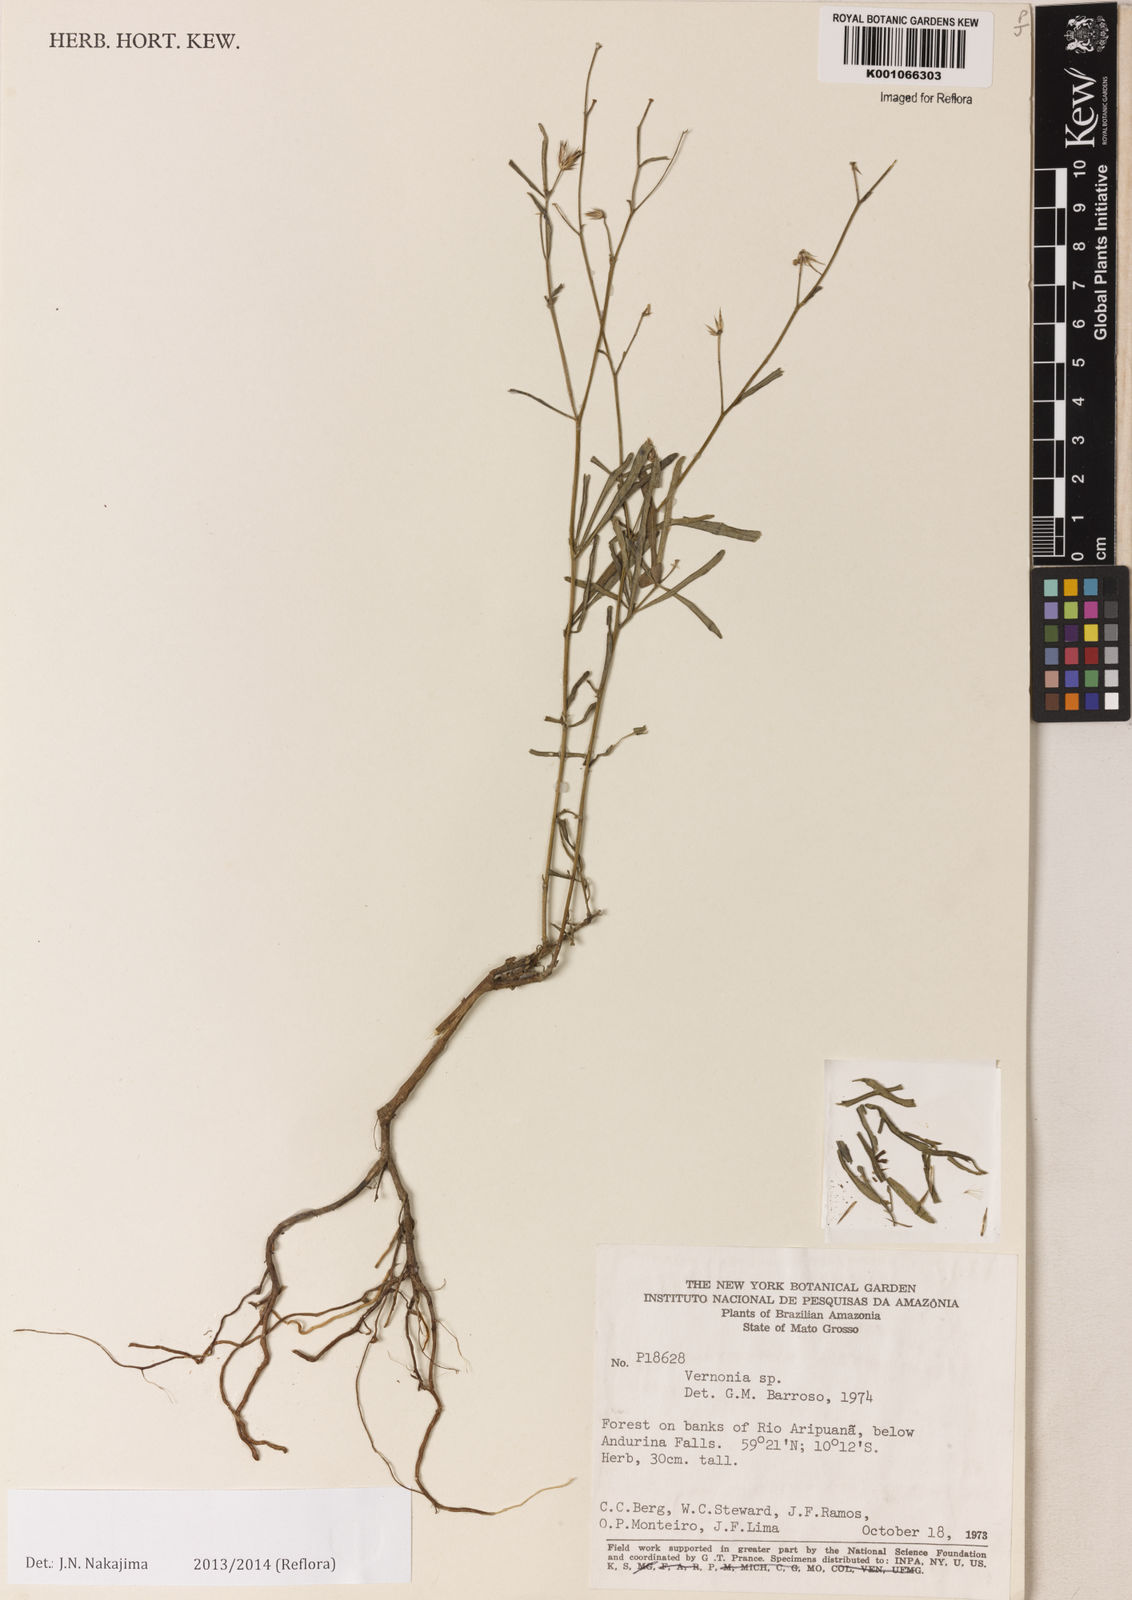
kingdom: Plantae
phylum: Tracheophyta
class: Magnoliopsida
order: Asterales
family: Asteraceae
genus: Vernonia
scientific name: Vernonia
